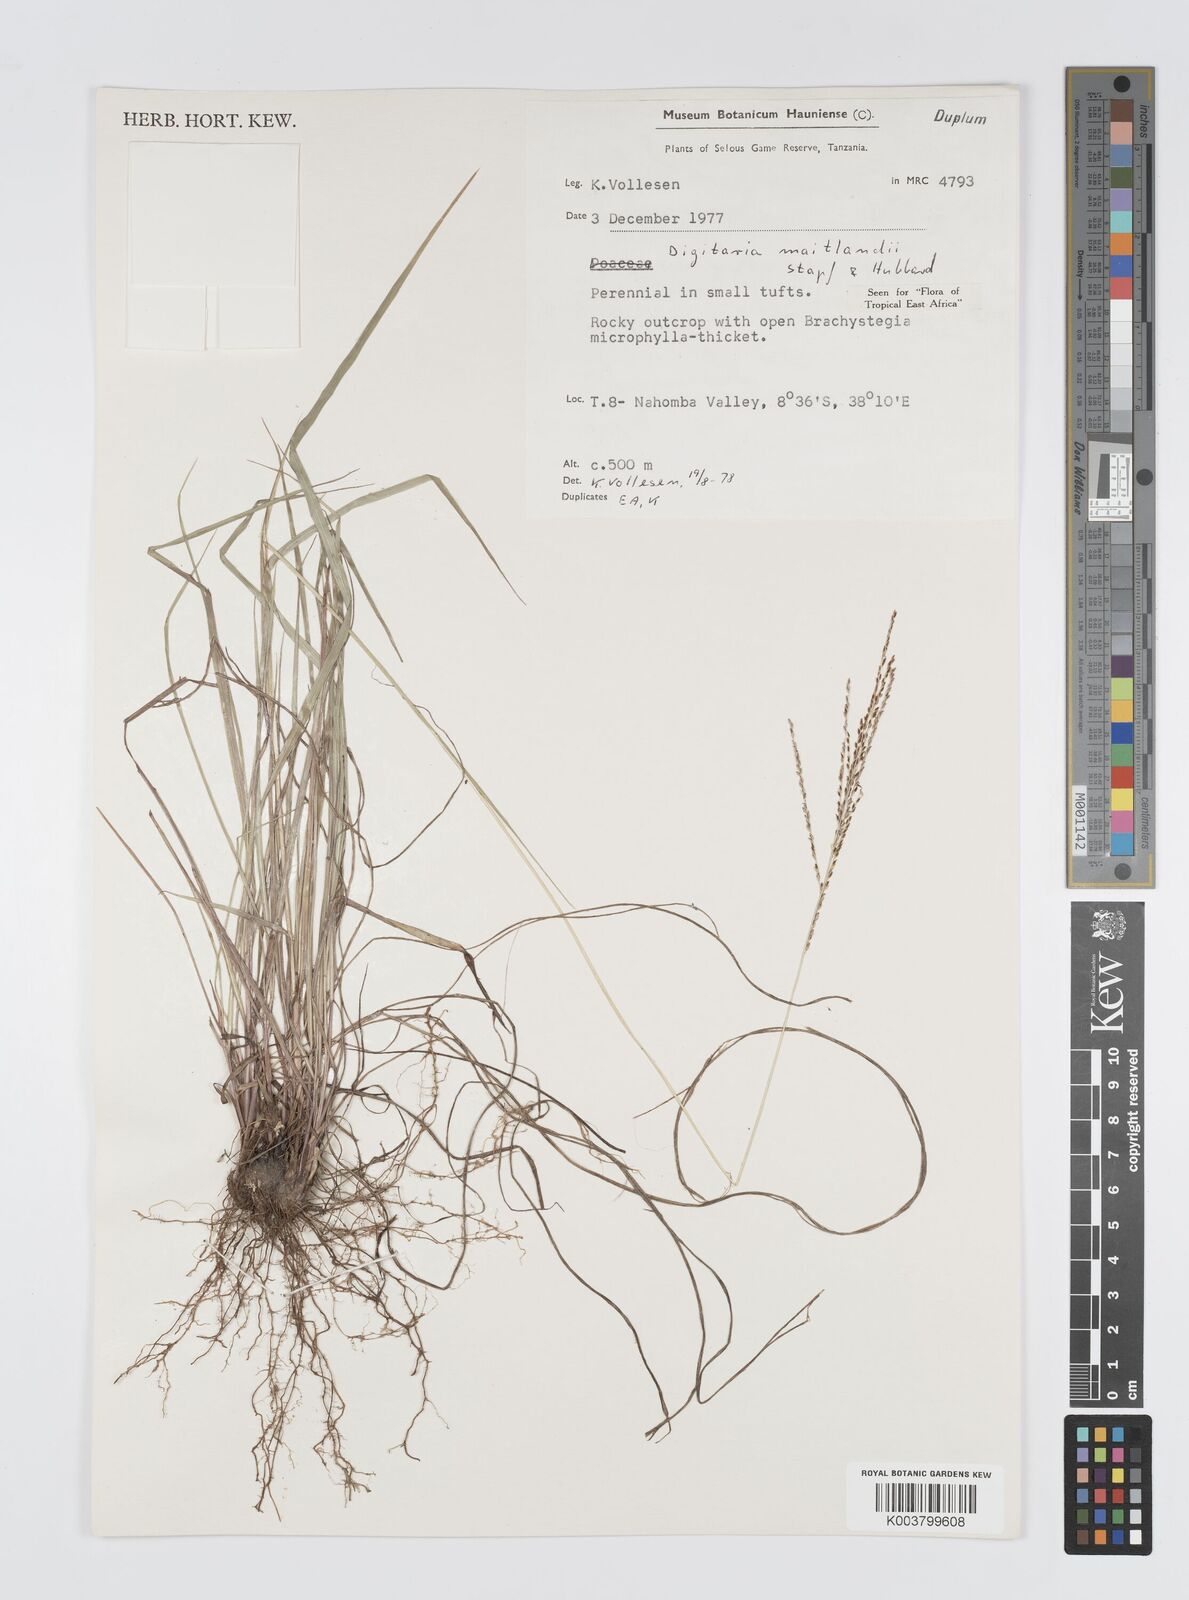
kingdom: Plantae
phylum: Tracheophyta
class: Liliopsida
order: Poales
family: Poaceae
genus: Digitaria
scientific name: Digitaria maitlandii
